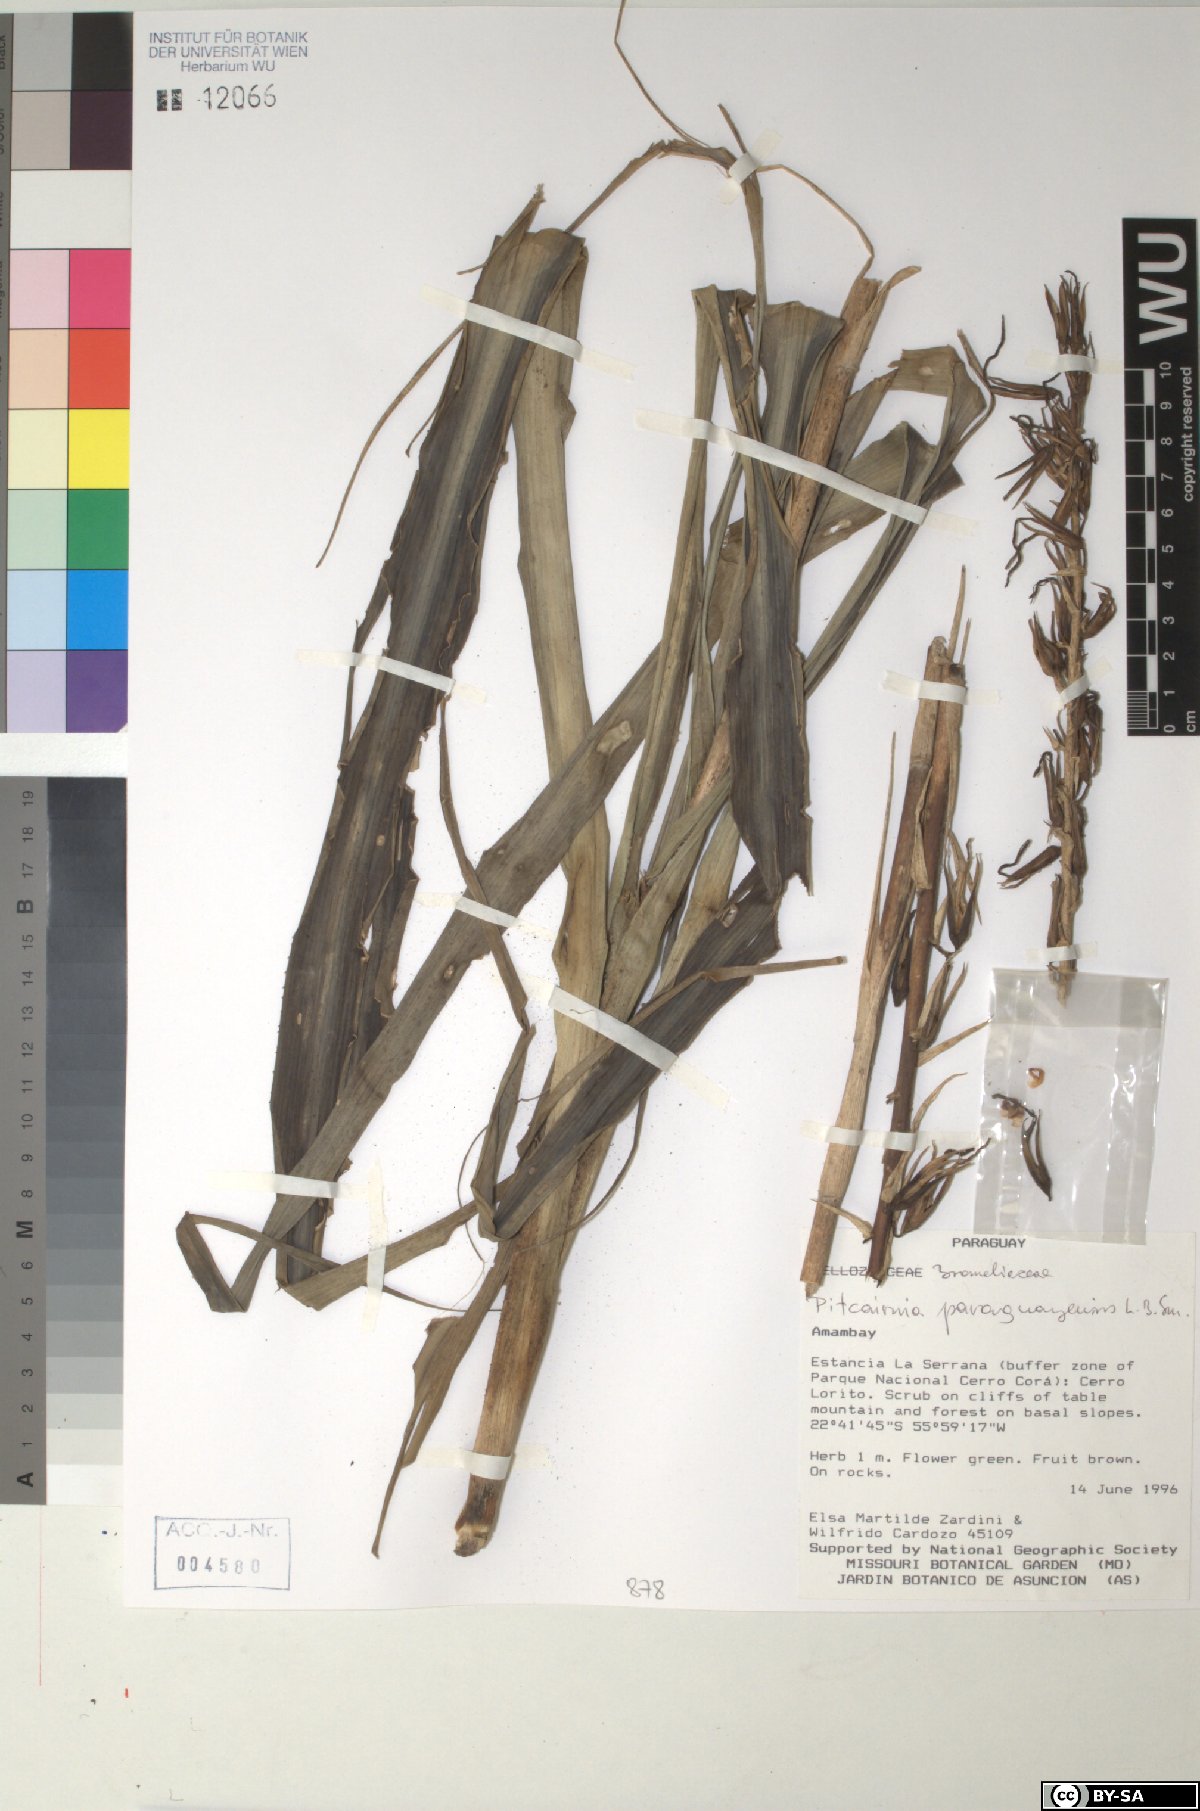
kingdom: Plantae
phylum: Tracheophyta
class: Liliopsida
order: Poales
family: Bromeliaceae
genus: Pitcairnia
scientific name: Pitcairnia paraguayensis
